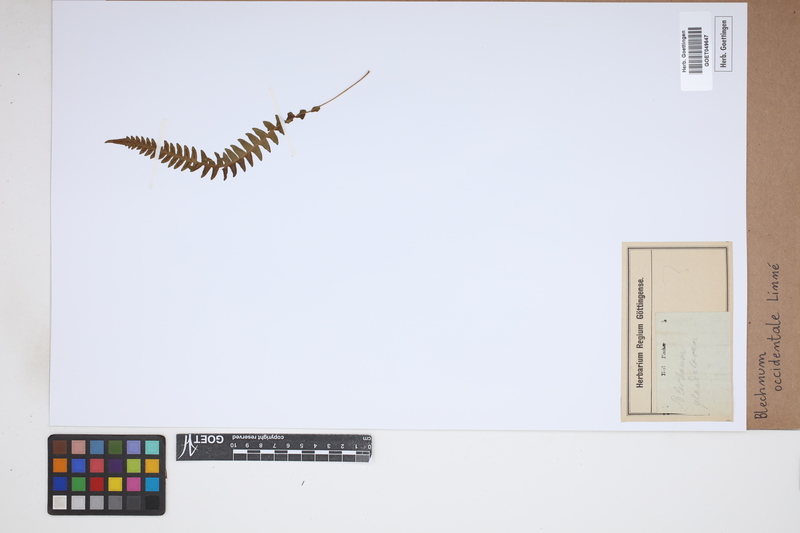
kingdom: Plantae
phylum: Tracheophyta
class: Polypodiopsida
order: Polypodiales
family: Blechnaceae
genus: Blechnum
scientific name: Blechnum occidentale
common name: Hammock fern
